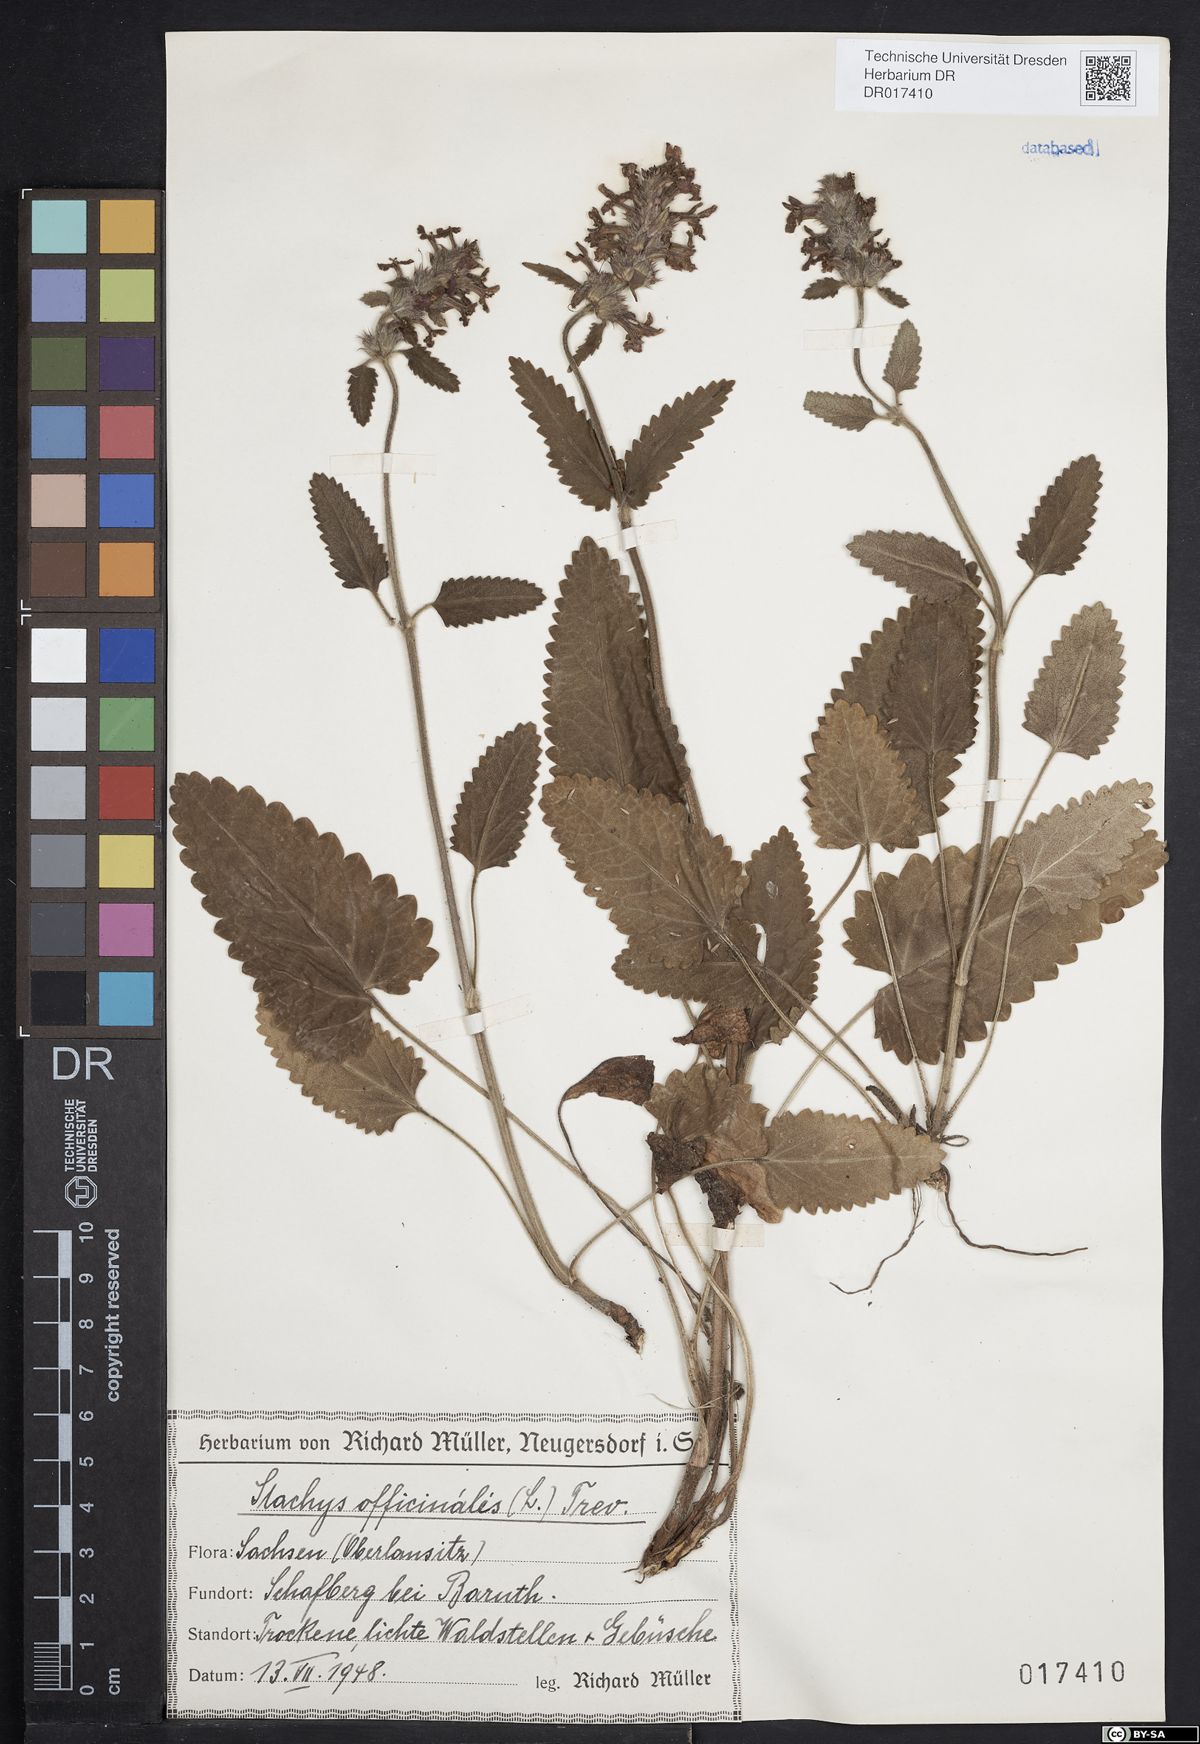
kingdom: Plantae
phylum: Tracheophyta
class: Magnoliopsida
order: Lamiales
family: Lamiaceae
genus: Betonica
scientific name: Betonica officinalis
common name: Bishop's-wort
